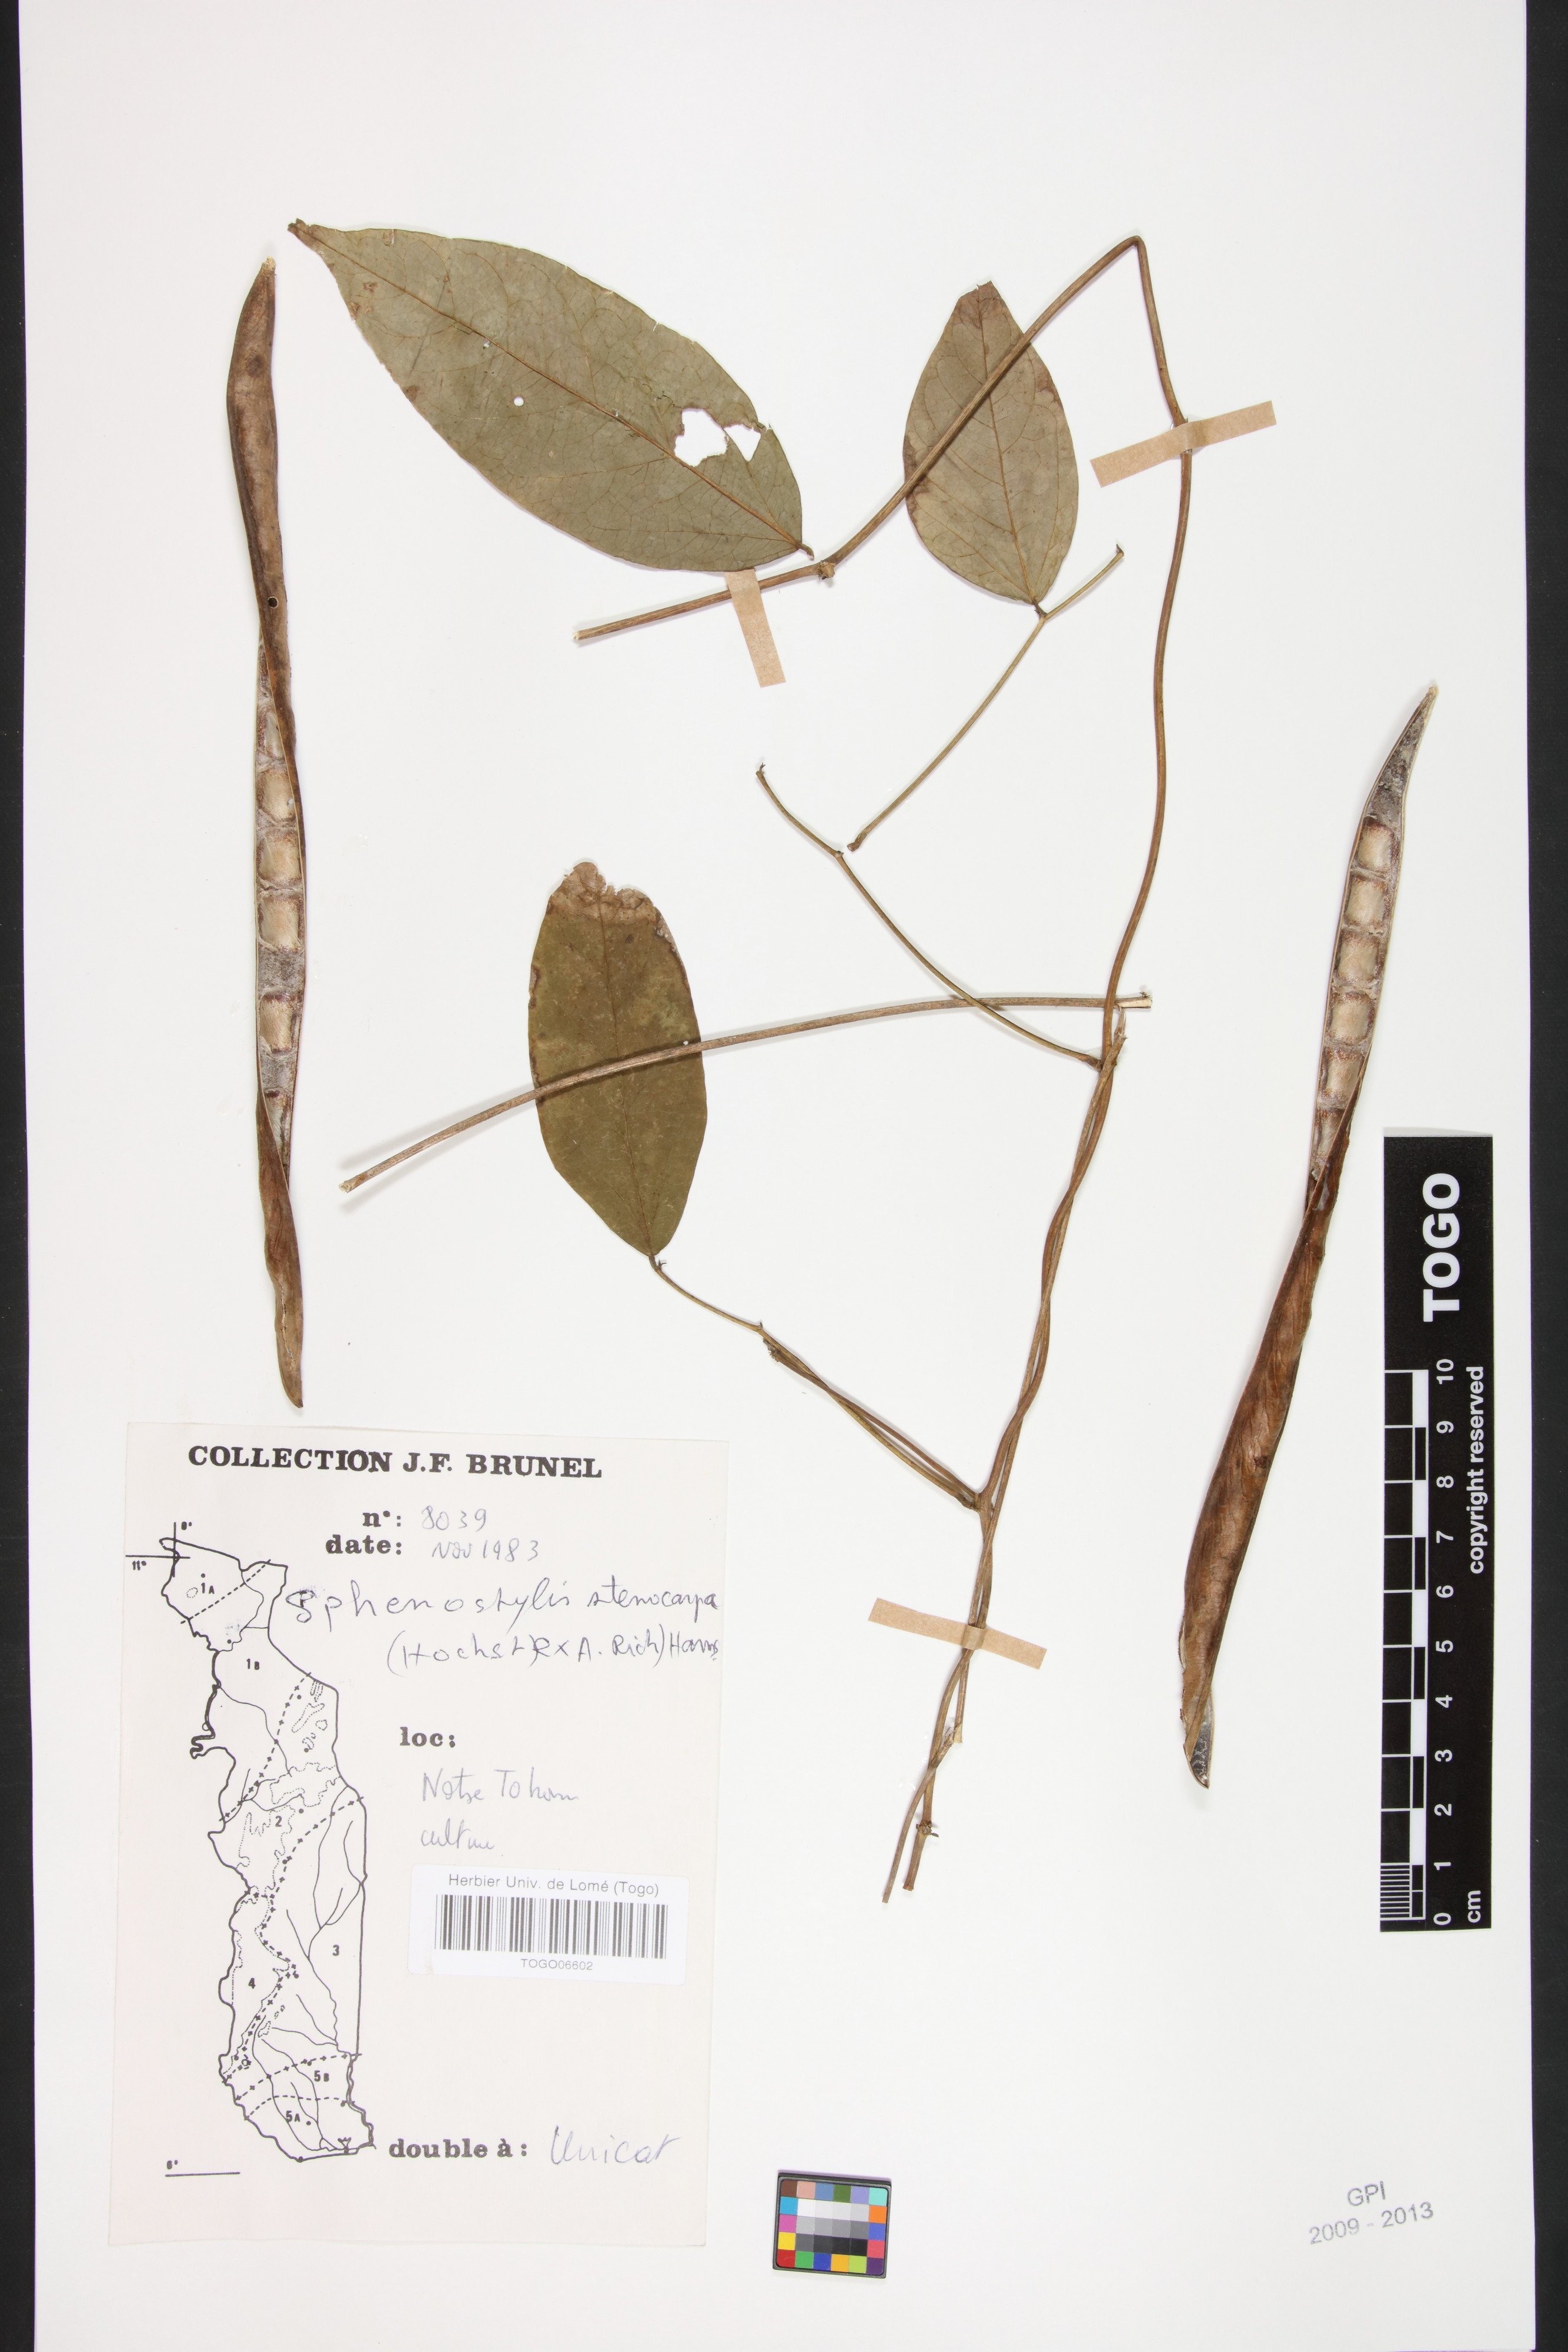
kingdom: Plantae
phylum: Tracheophyta
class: Magnoliopsida
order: Fabales
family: Fabaceae
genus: Sphenostylis
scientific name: Sphenostylis stenocarpa
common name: Yam-pea
